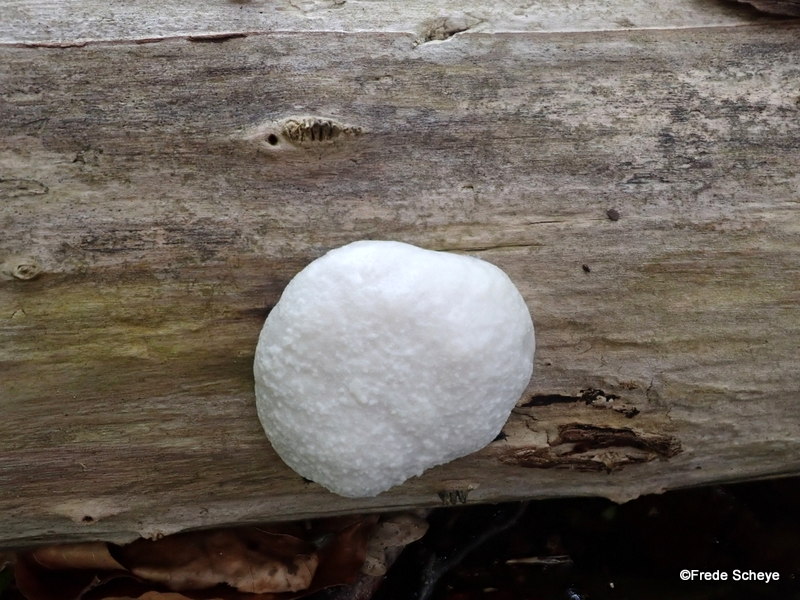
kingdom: Protozoa
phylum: Mycetozoa
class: Myxomycetes
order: Cribrariales
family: Tubiferaceae
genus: Reticularia
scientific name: Reticularia lycoperdon
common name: skinnende støvpude
